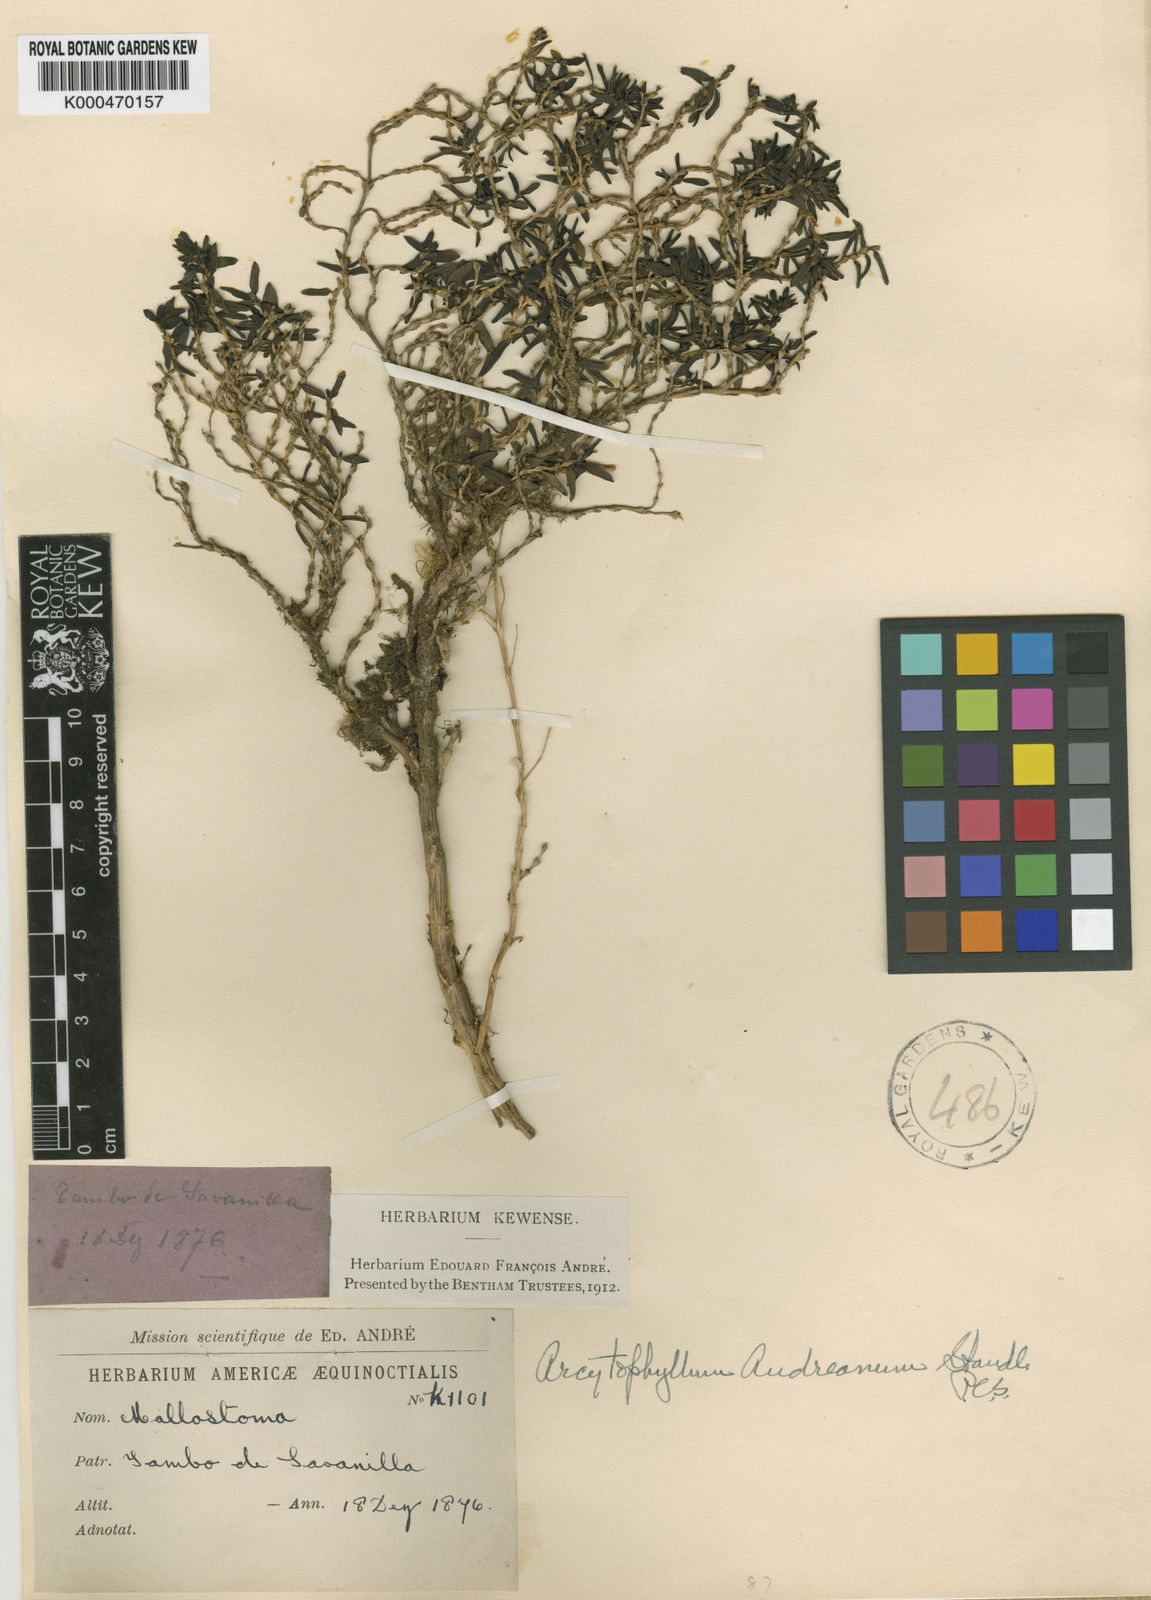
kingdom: Plantae
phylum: Tracheophyta
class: Magnoliopsida
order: Gentianales
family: Rubiaceae
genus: Arcytophyllum
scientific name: Arcytophyllum ciliolatum
